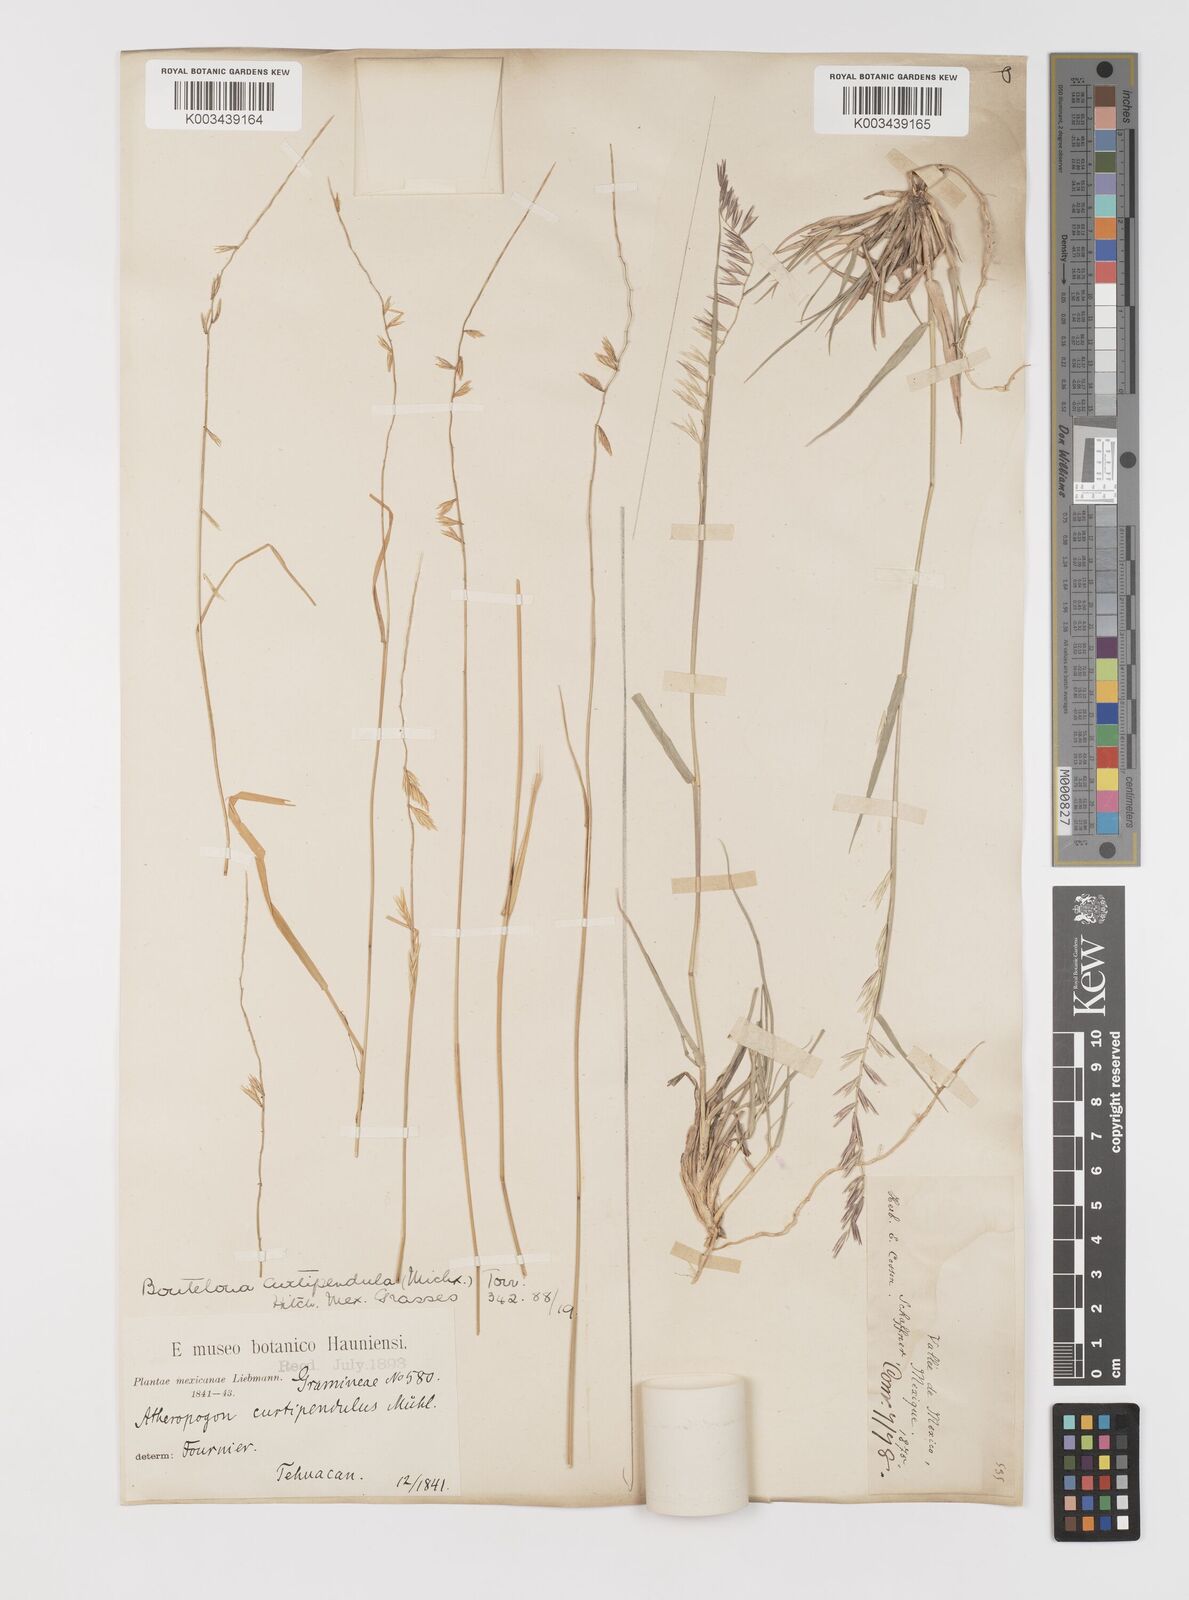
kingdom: Plantae
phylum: Tracheophyta
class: Liliopsida
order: Poales
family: Poaceae
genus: Bouteloua
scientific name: Bouteloua curtipendula
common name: Side-oats grama
